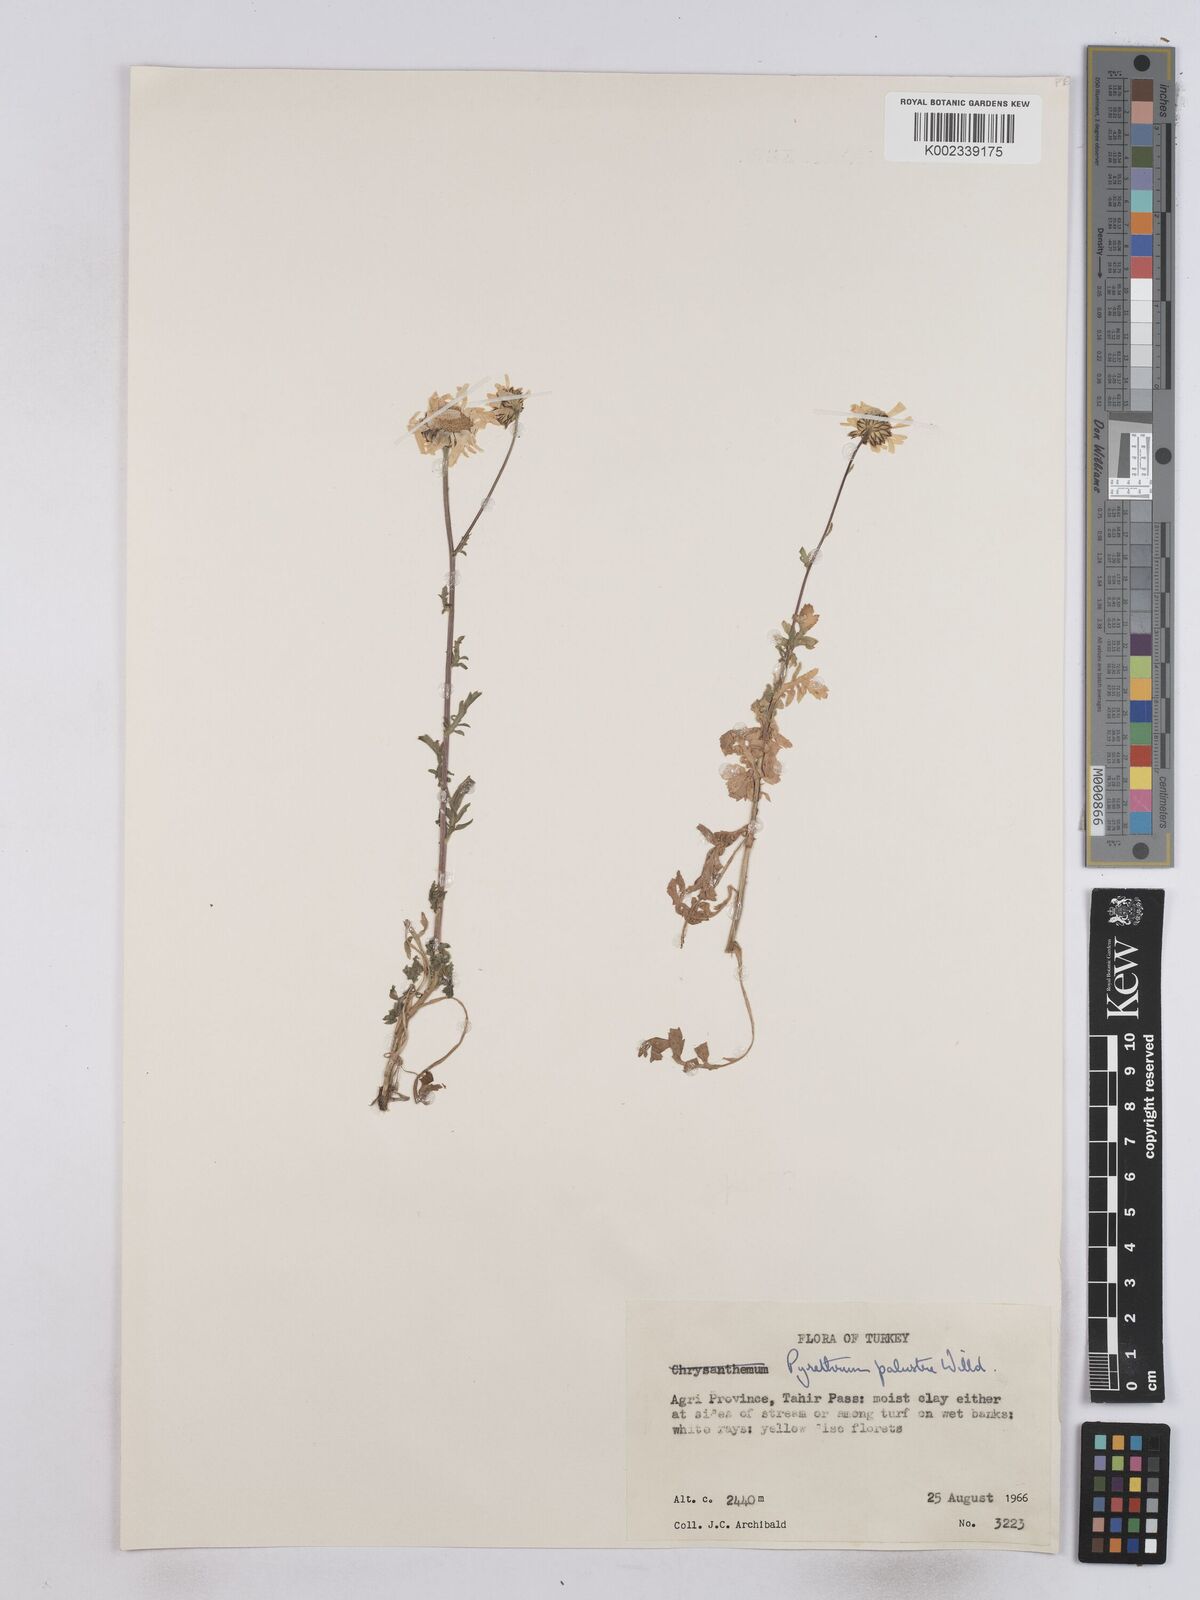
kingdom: Plantae
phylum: Tracheophyta
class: Magnoliopsida
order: Asterales
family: Asteraceae
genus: Tanacetum
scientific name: Tanacetum punctatum
